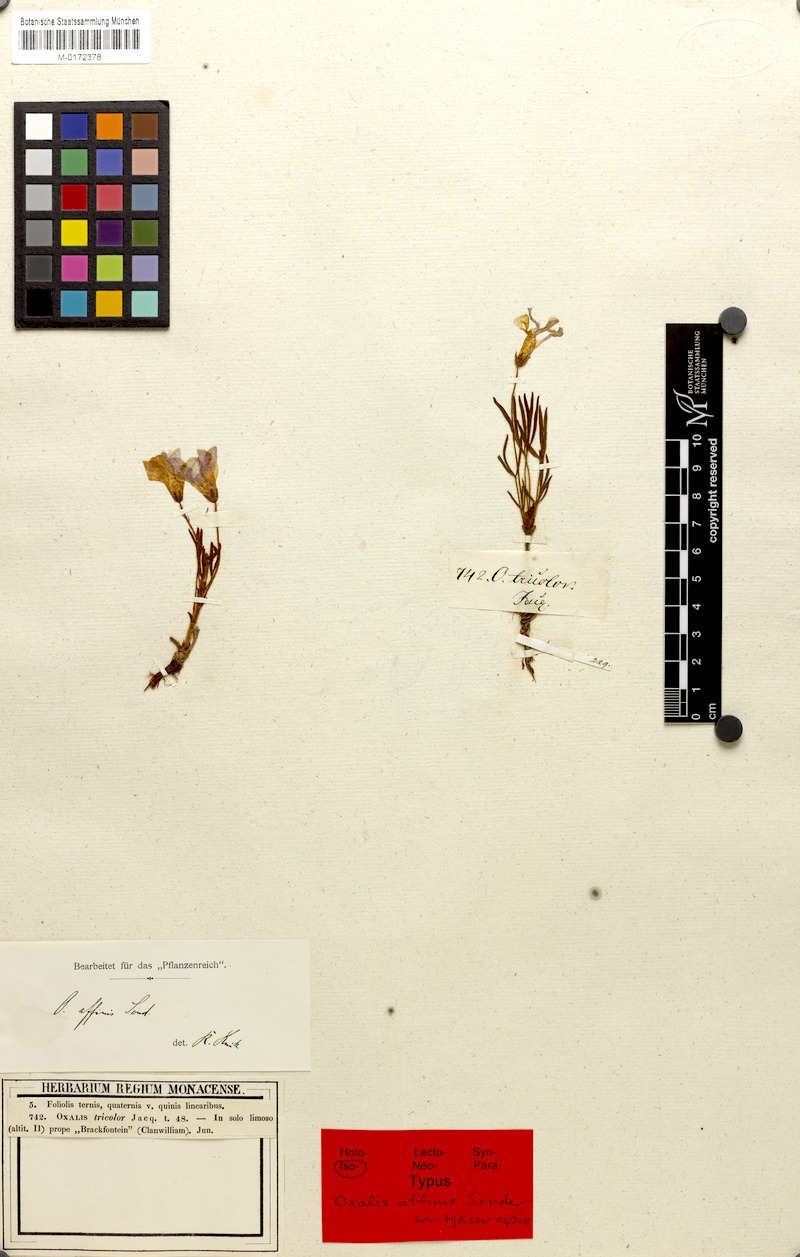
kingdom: Plantae
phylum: Tracheophyta
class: Magnoliopsida
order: Oxalidales
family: Oxalidaceae
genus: Oxalis
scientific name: Oxalis adspersa
